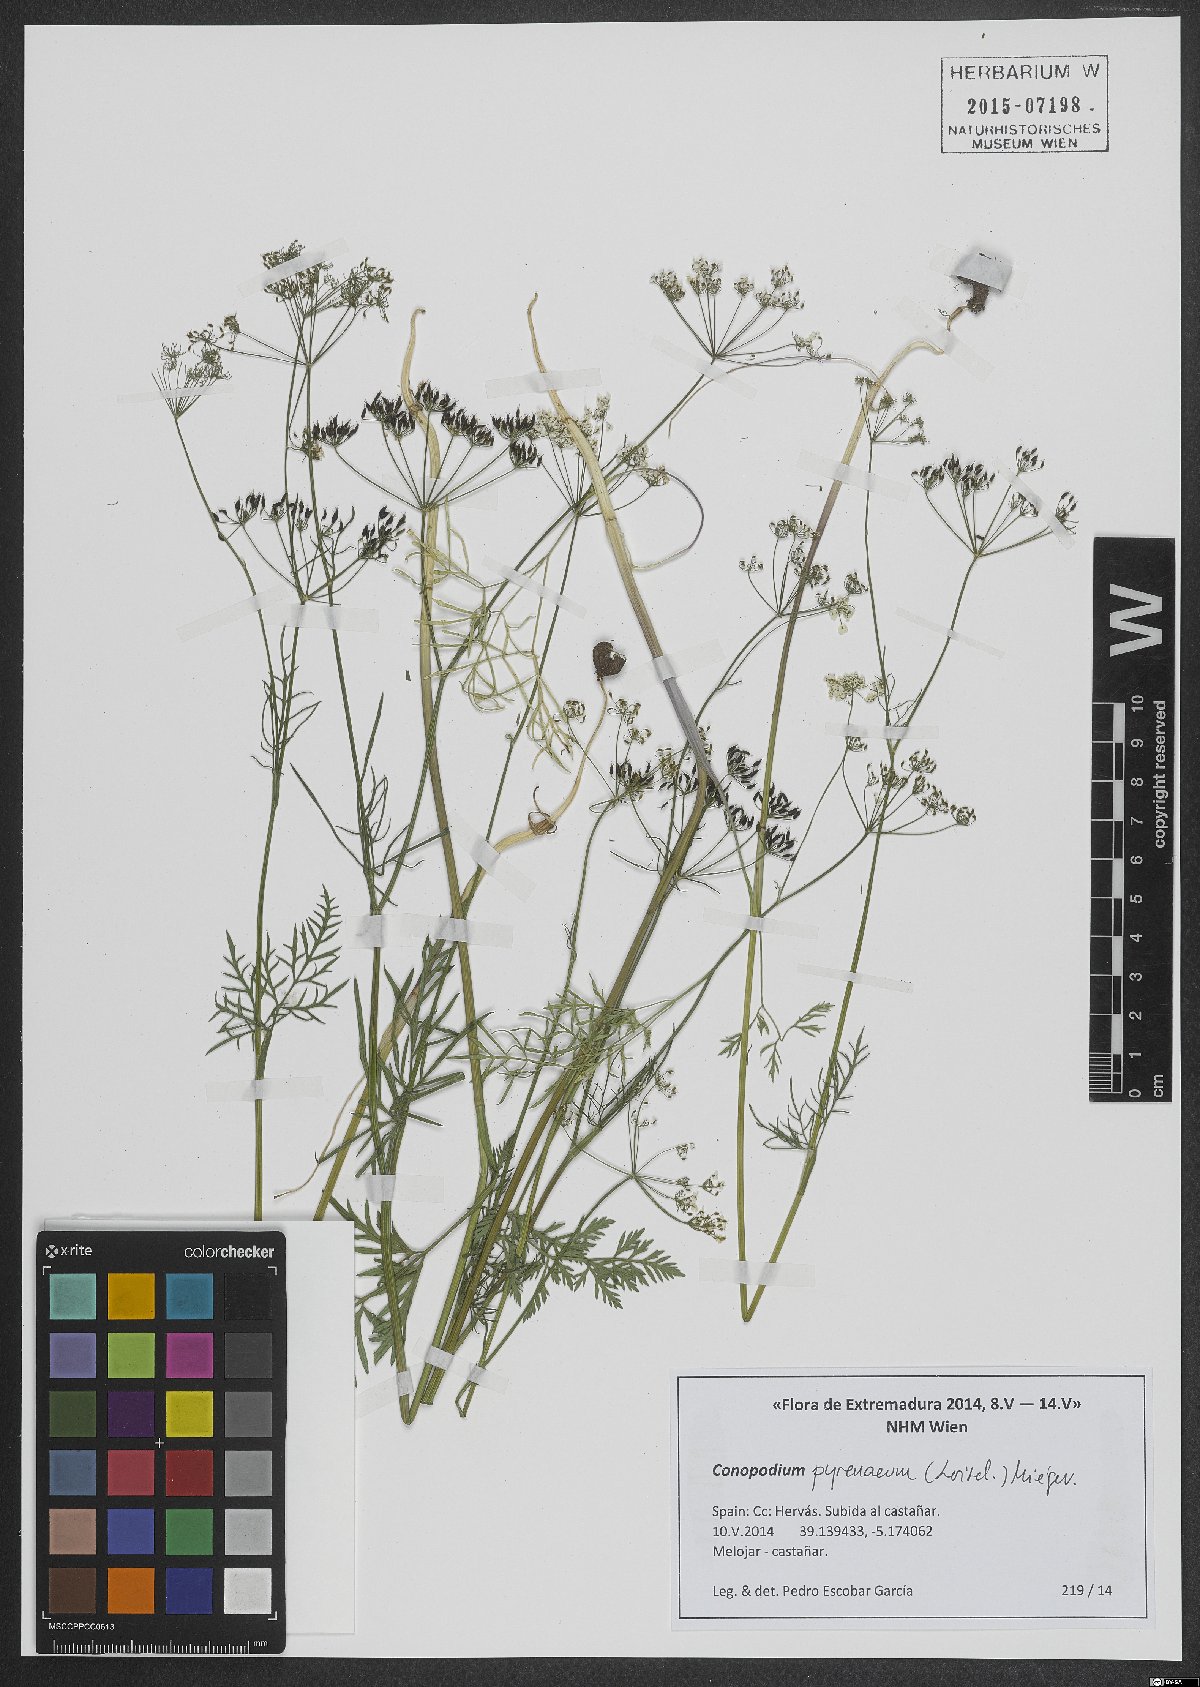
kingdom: Plantae
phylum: Tracheophyta
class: Magnoliopsida
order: Apiales
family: Apiaceae
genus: Conopodium
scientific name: Conopodium pyrenaeum
